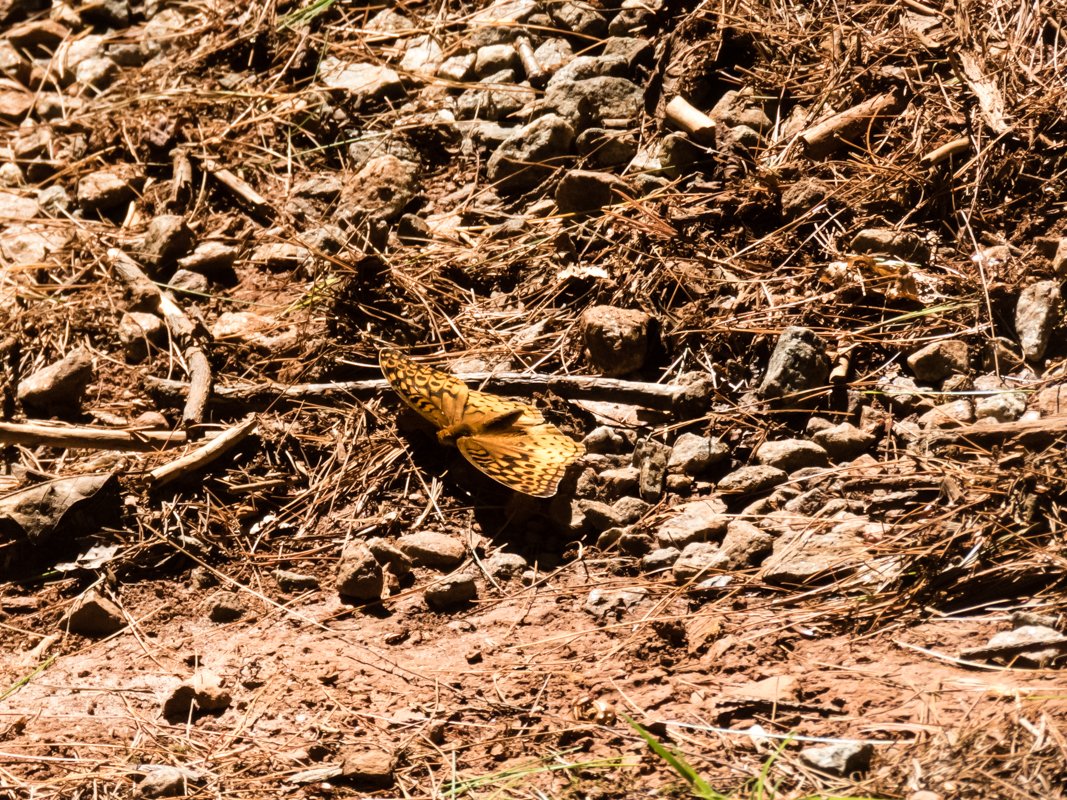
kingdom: Animalia
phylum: Arthropoda
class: Insecta
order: Lepidoptera
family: Nymphalidae
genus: Speyeria
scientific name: Speyeria cybele
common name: Great Spangled Fritillary
